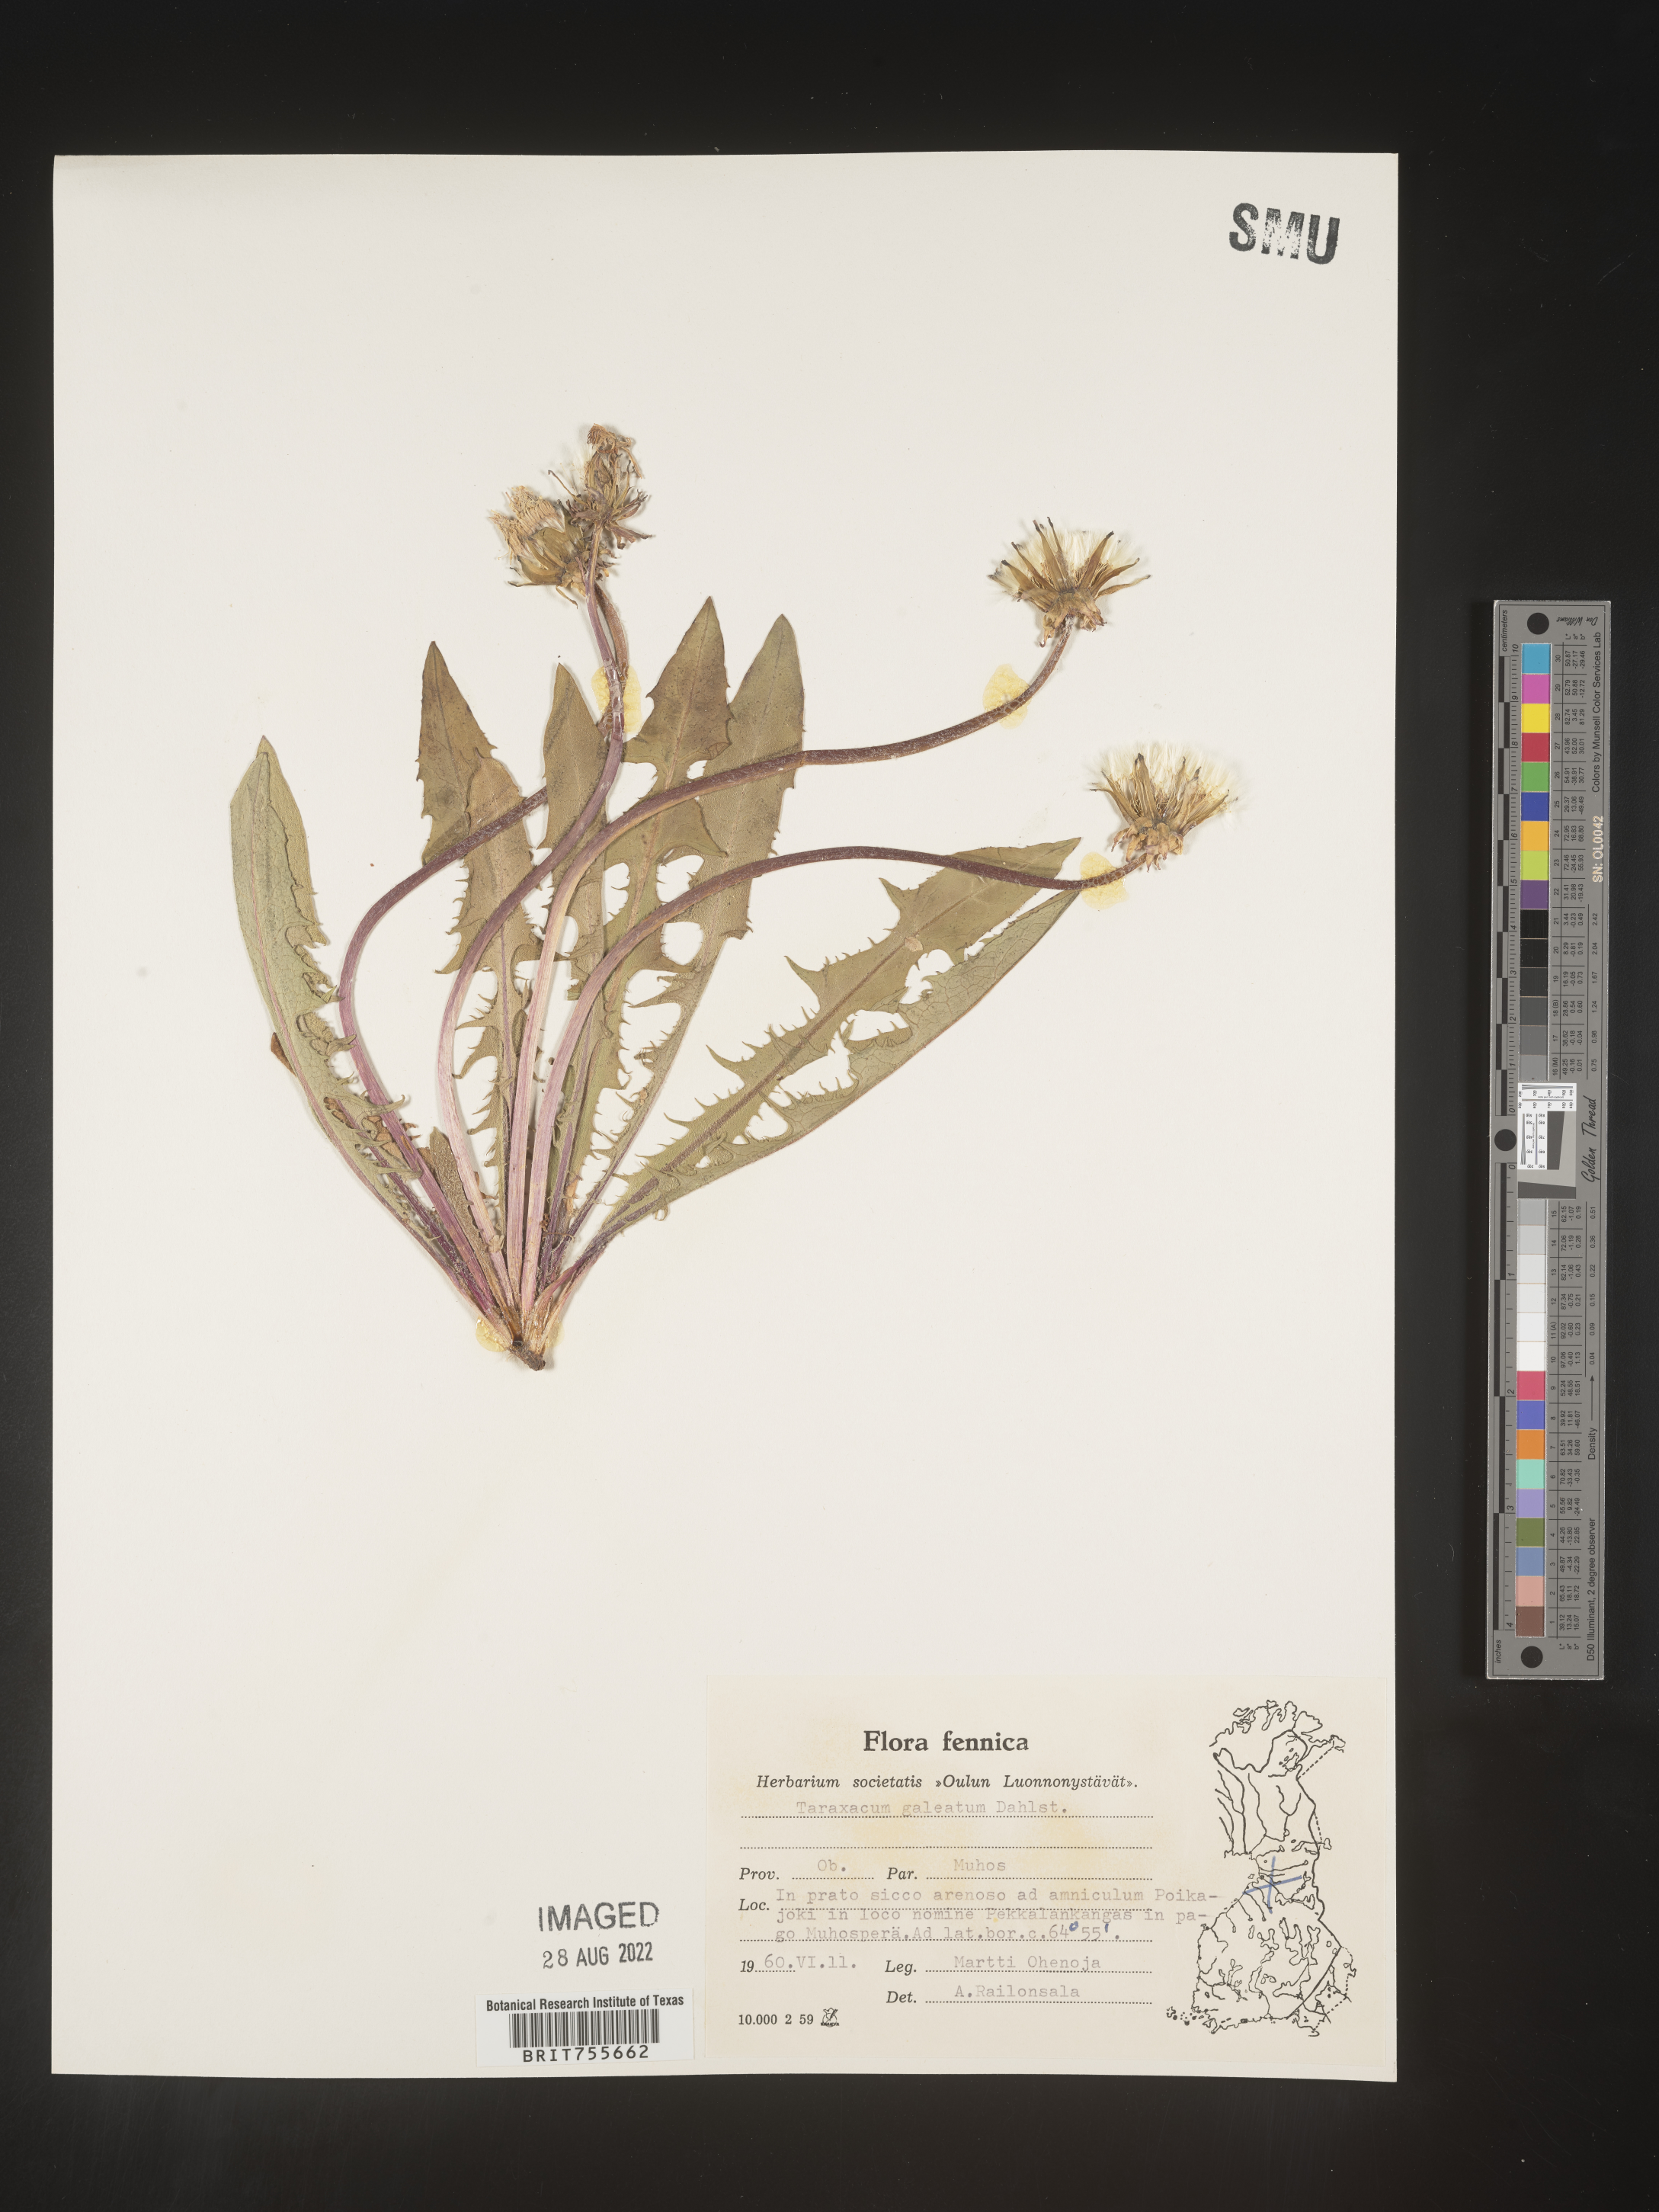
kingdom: Plantae
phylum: Tracheophyta
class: Magnoliopsida
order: Asterales
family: Asteraceae
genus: Taraxacum
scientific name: Taraxacum
